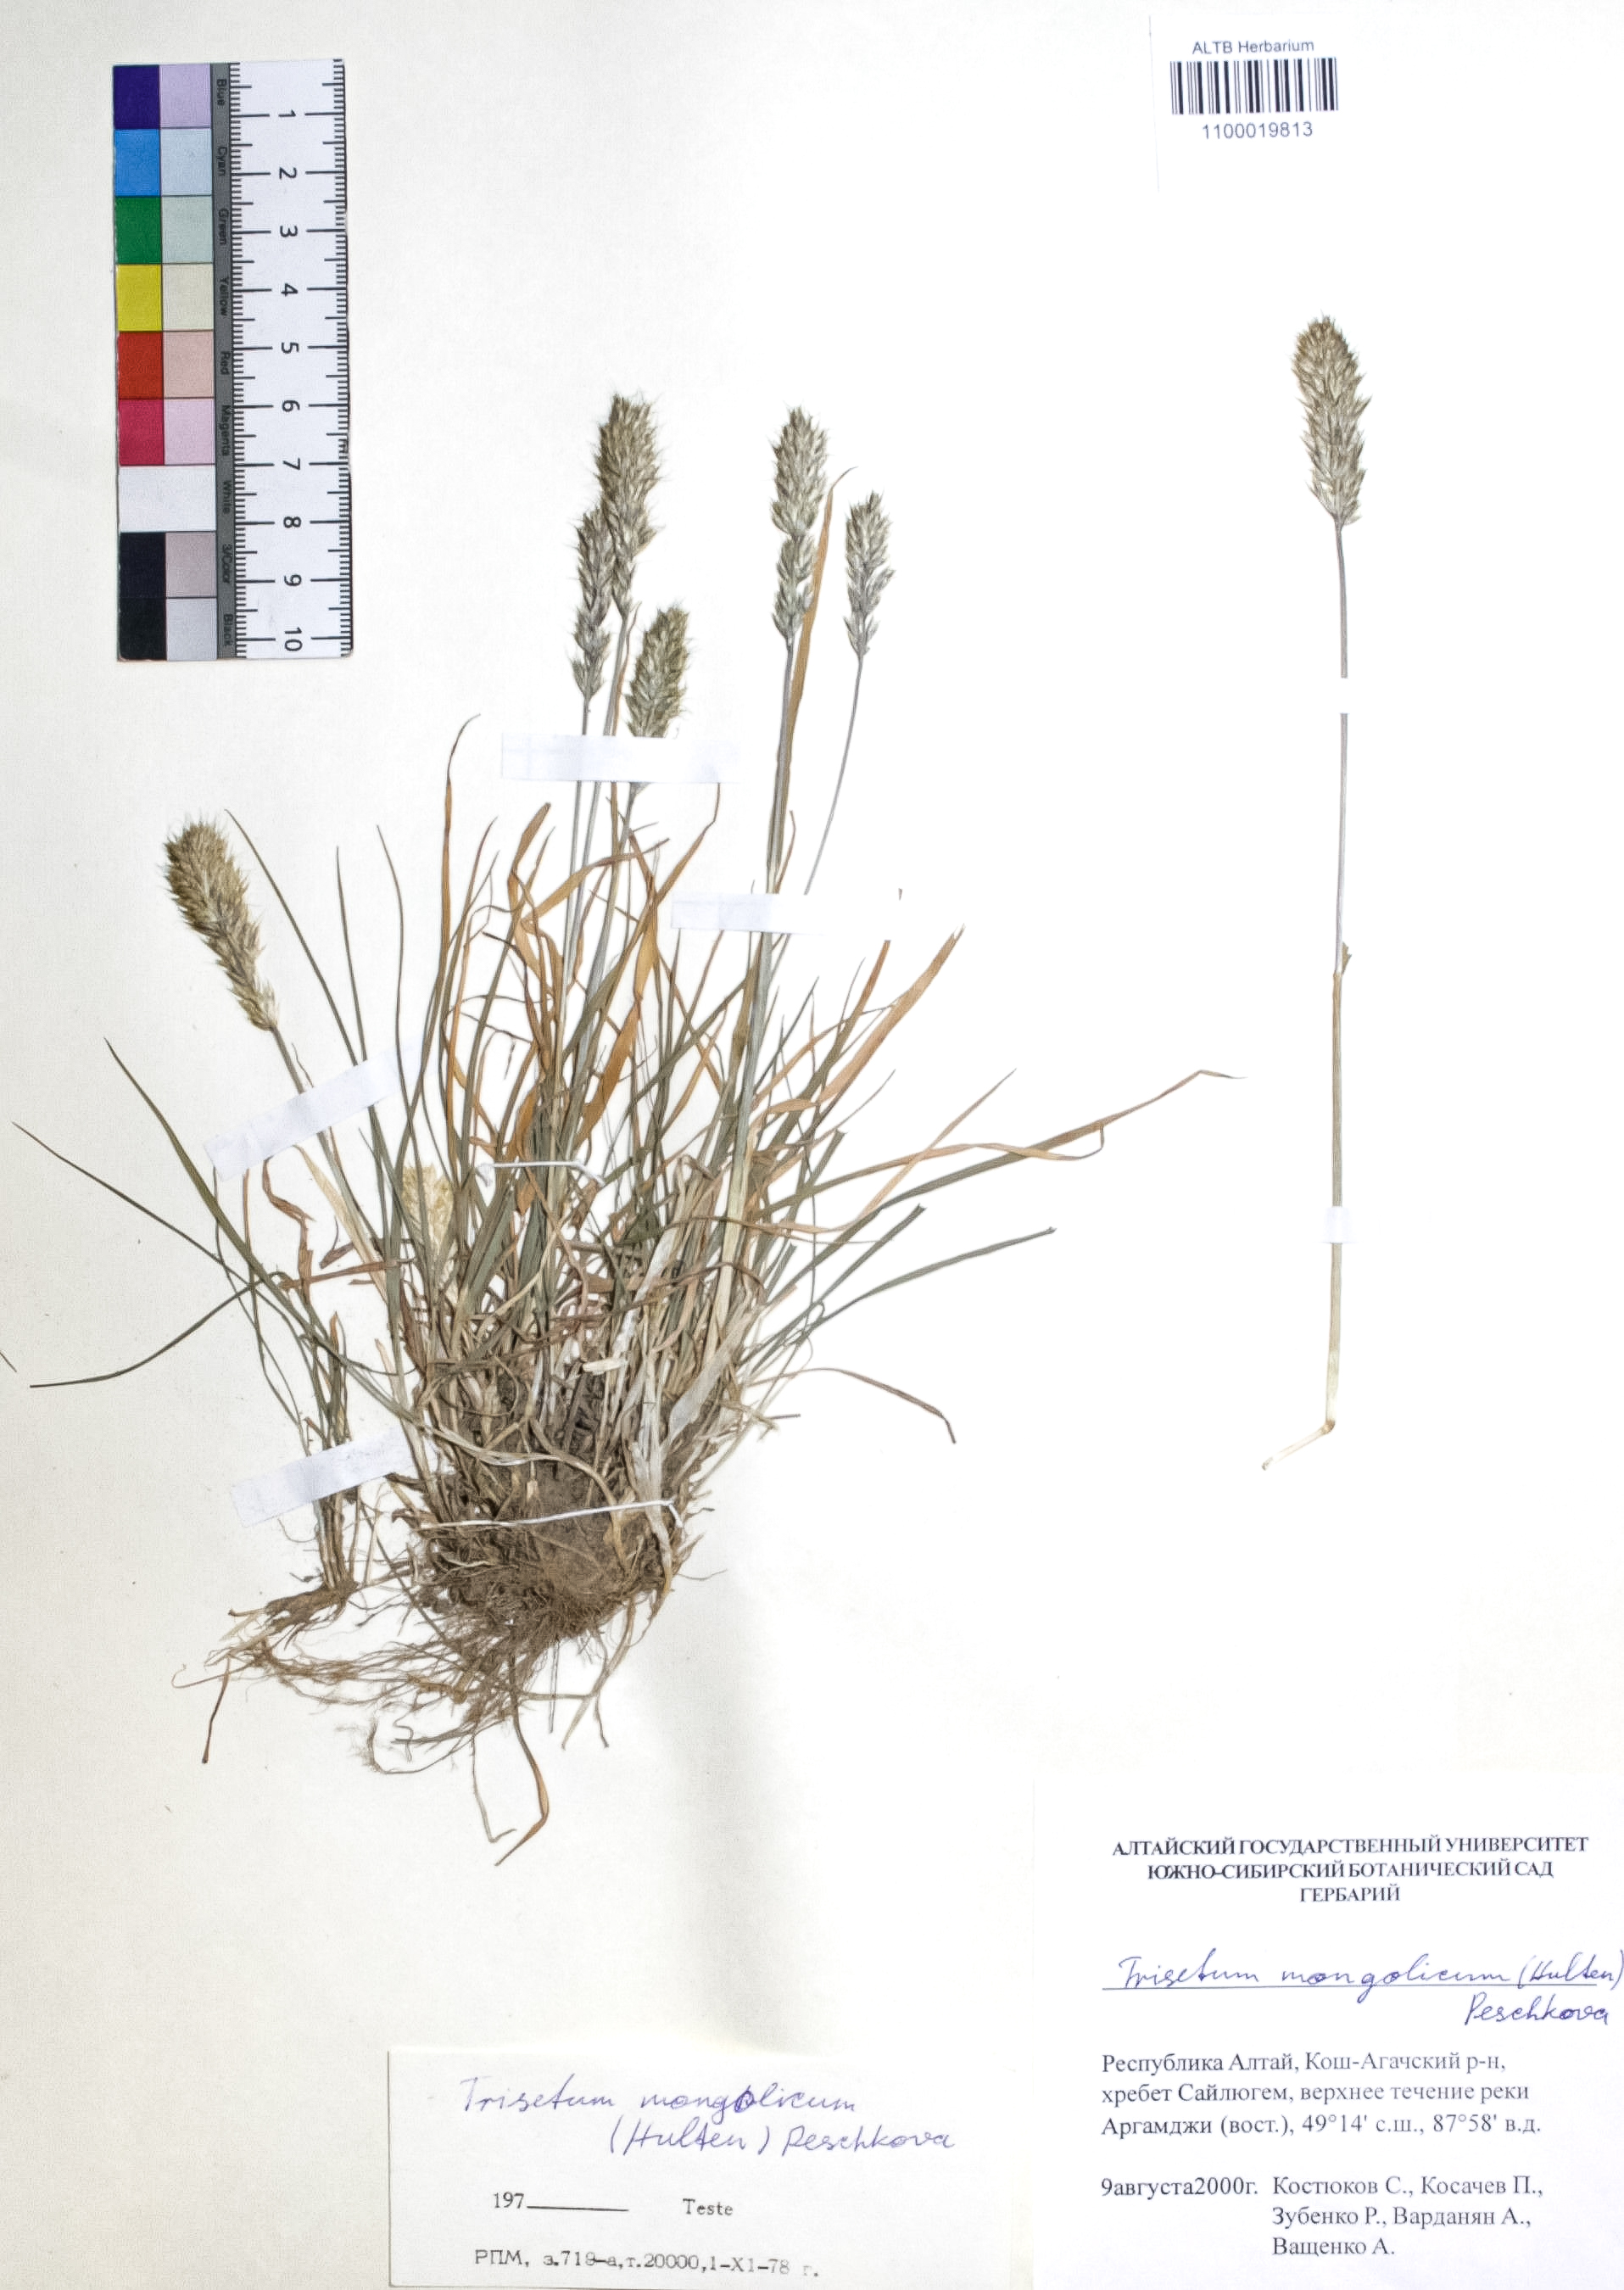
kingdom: Plantae
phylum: Tracheophyta
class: Liliopsida
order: Poales
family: Poaceae
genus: Koeleria
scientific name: Koeleria spicata
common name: Mountain trisetum
